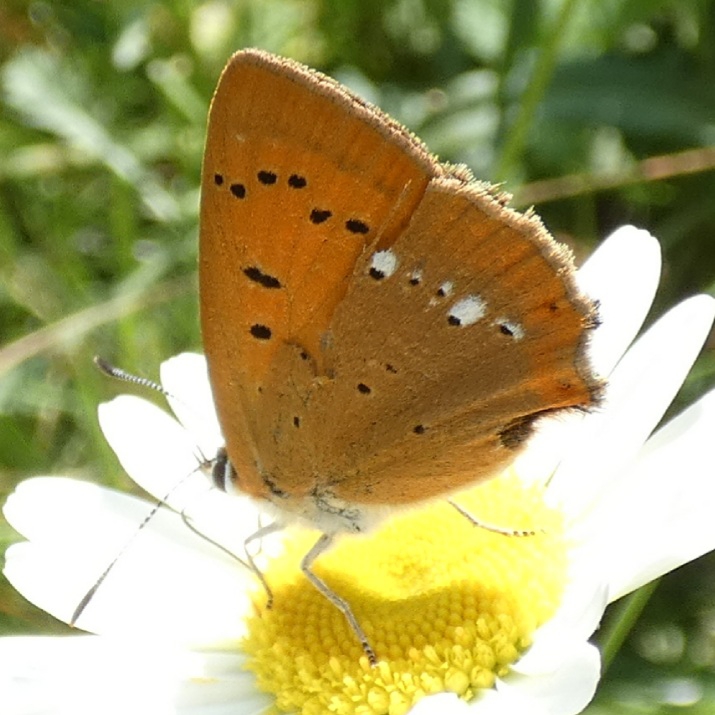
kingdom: Animalia
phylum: Arthropoda
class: Insecta
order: Lepidoptera
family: Lycaenidae
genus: Lycaena
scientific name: Lycaena virgaureae
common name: Dukatsommerfugl
